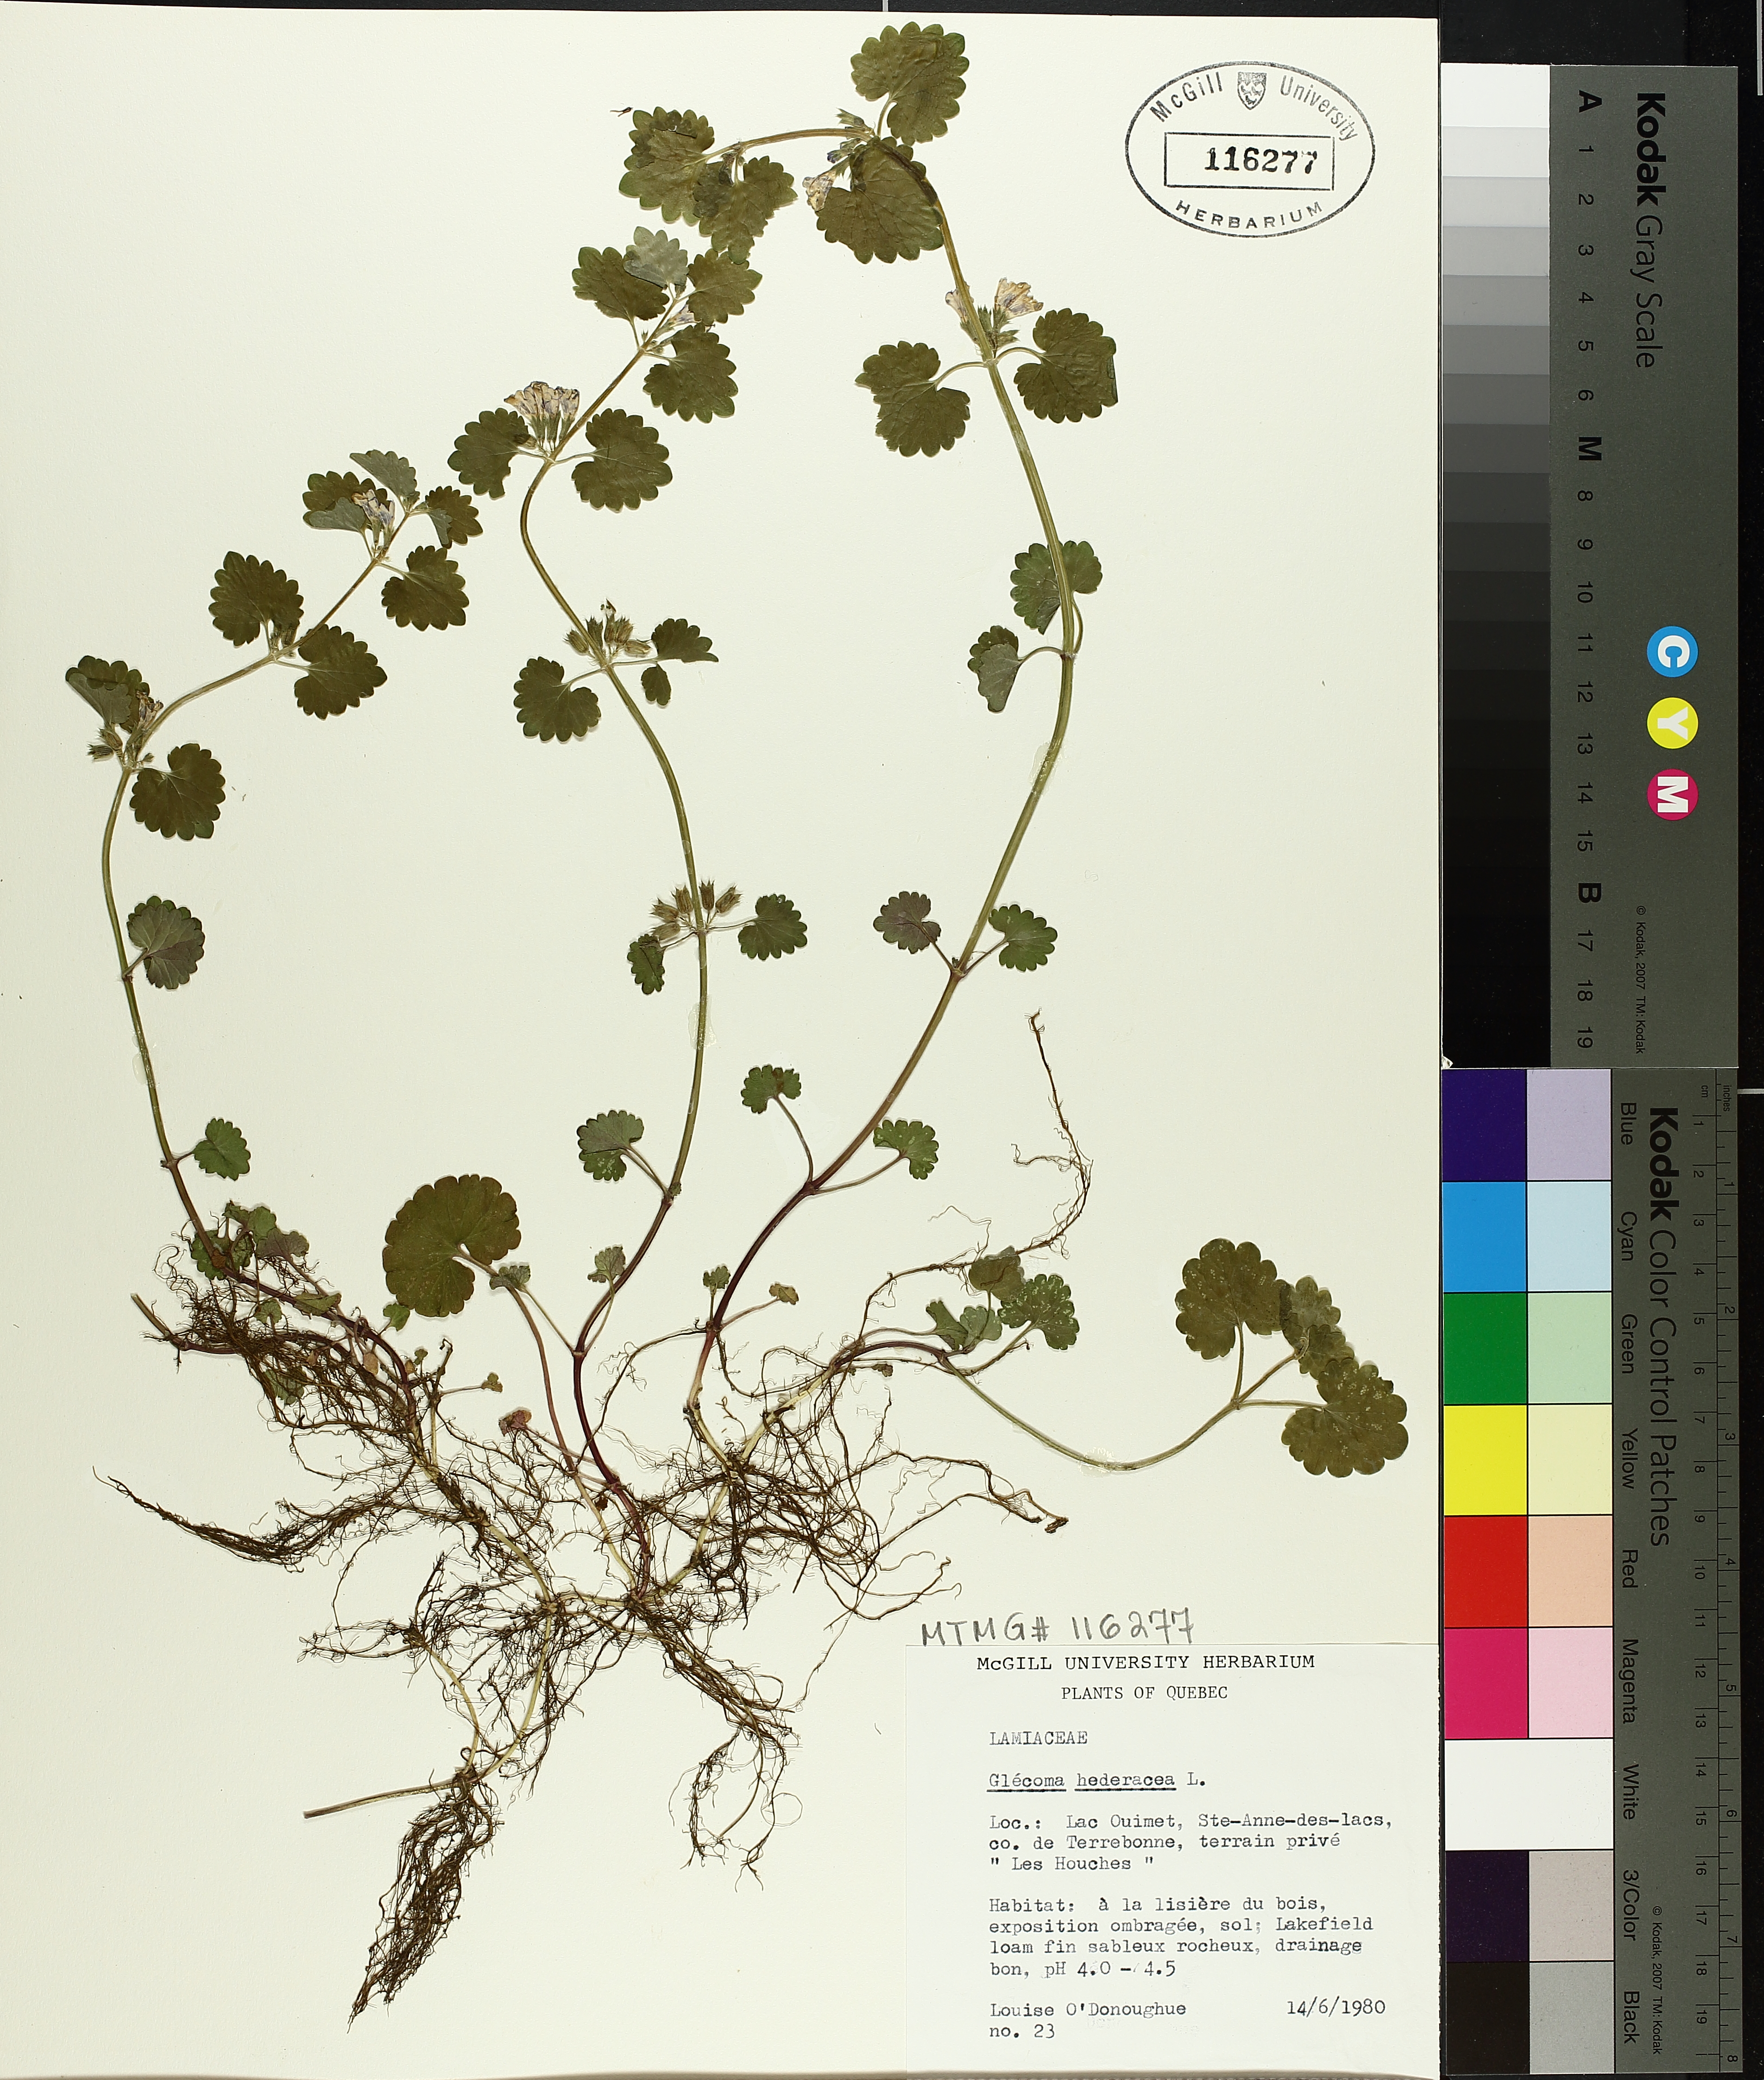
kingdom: Plantae
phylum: Tracheophyta
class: Magnoliopsida
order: Lamiales
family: Lamiaceae
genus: Glechoma
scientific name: Glechoma hederacea
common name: Ground ivy
